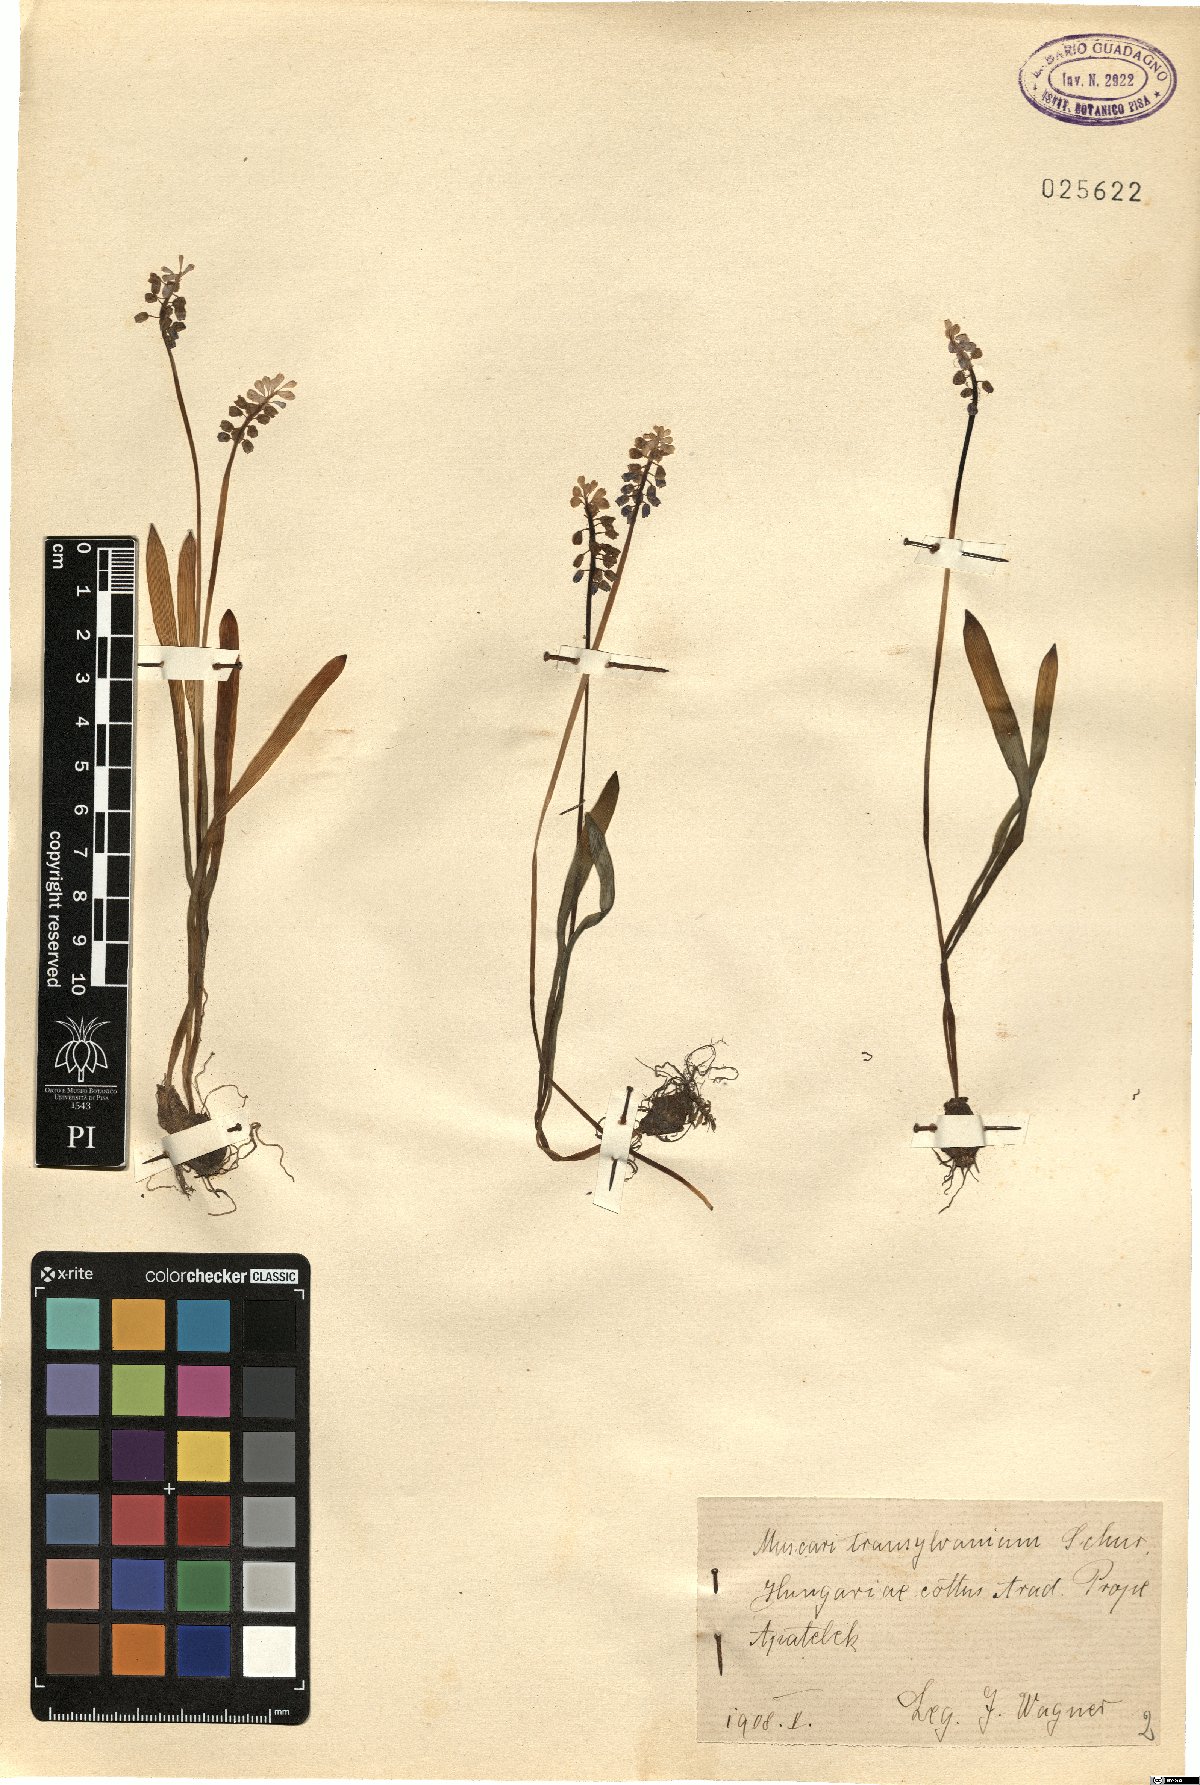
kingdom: Plantae
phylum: Tracheophyta
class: Liliopsida
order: Asparagales
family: Asparagaceae
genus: Muscari
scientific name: Muscari botryoides
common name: Compact grape-hyacinth
